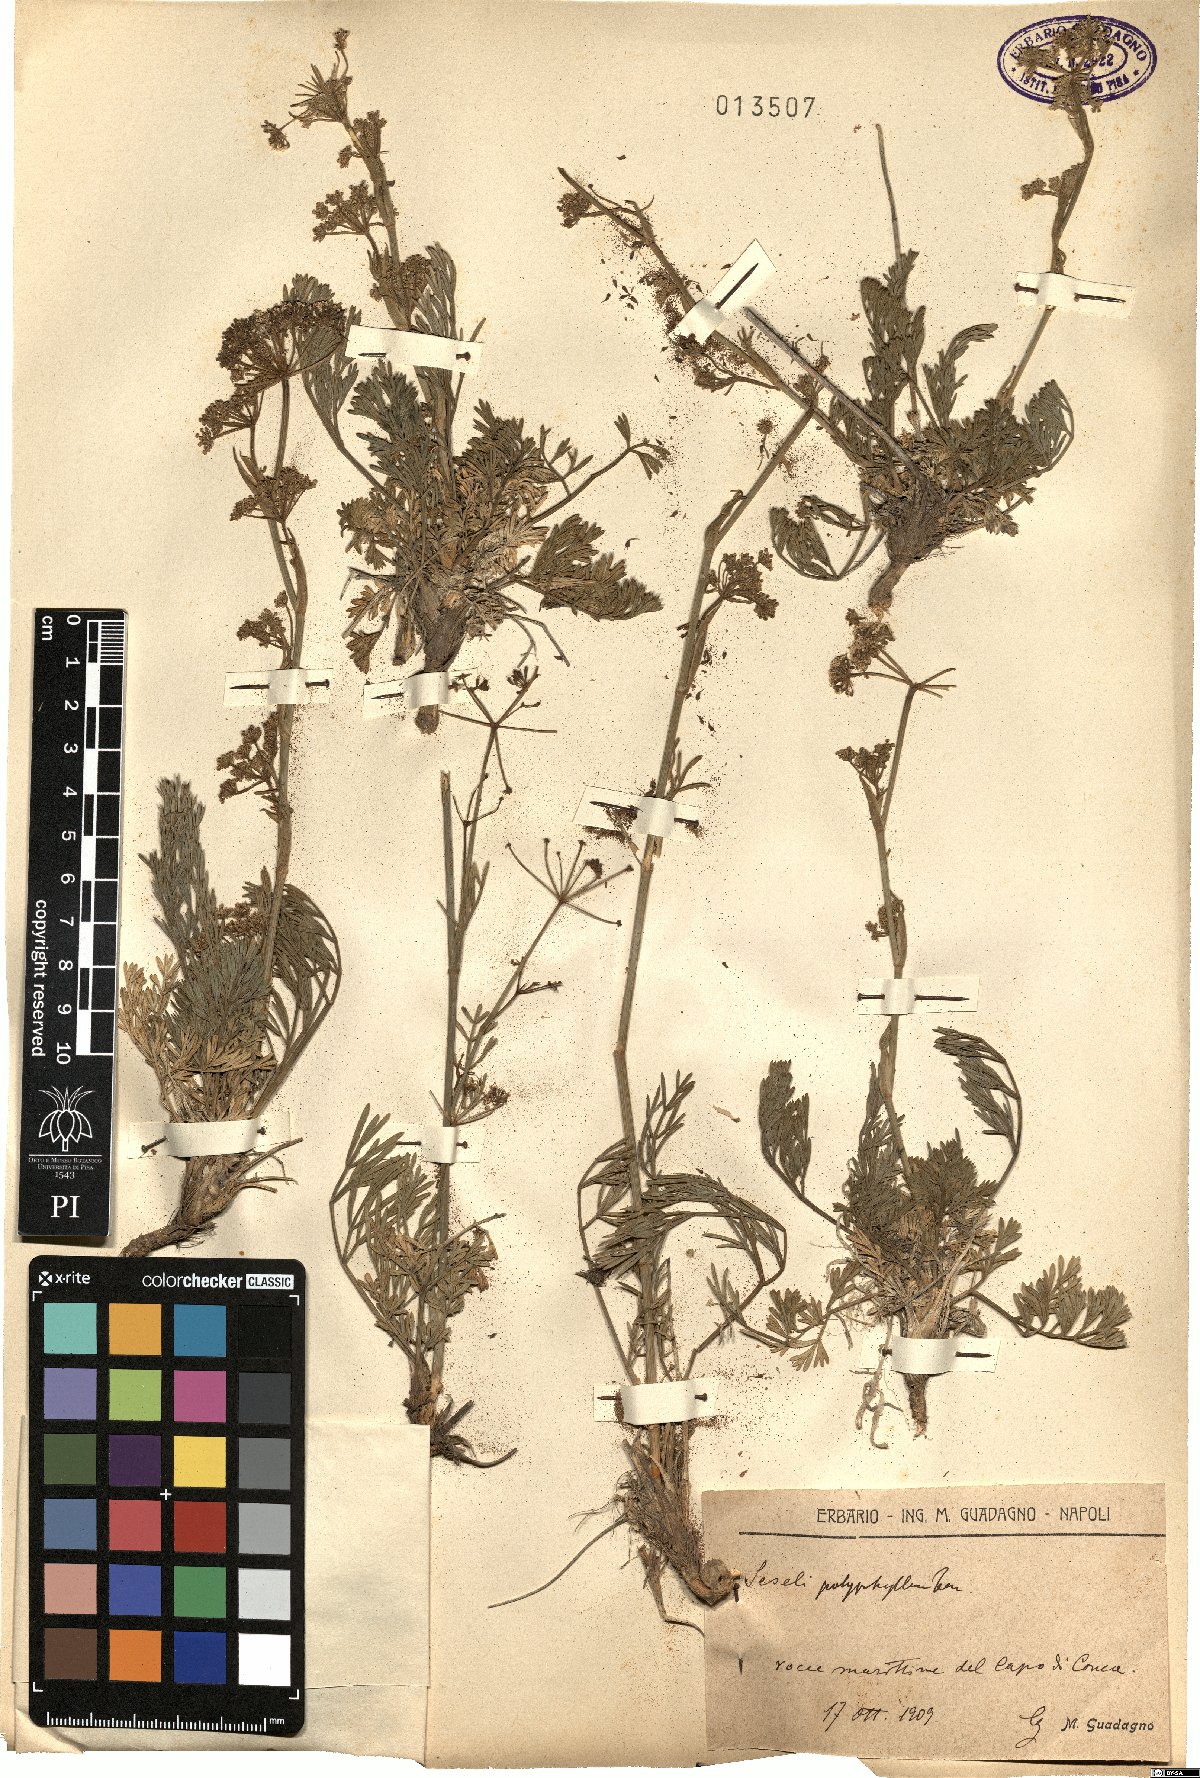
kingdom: Plantae
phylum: Tracheophyta
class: Magnoliopsida
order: Apiales
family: Apiaceae
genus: Seseli
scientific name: Seseli polyphyllum
